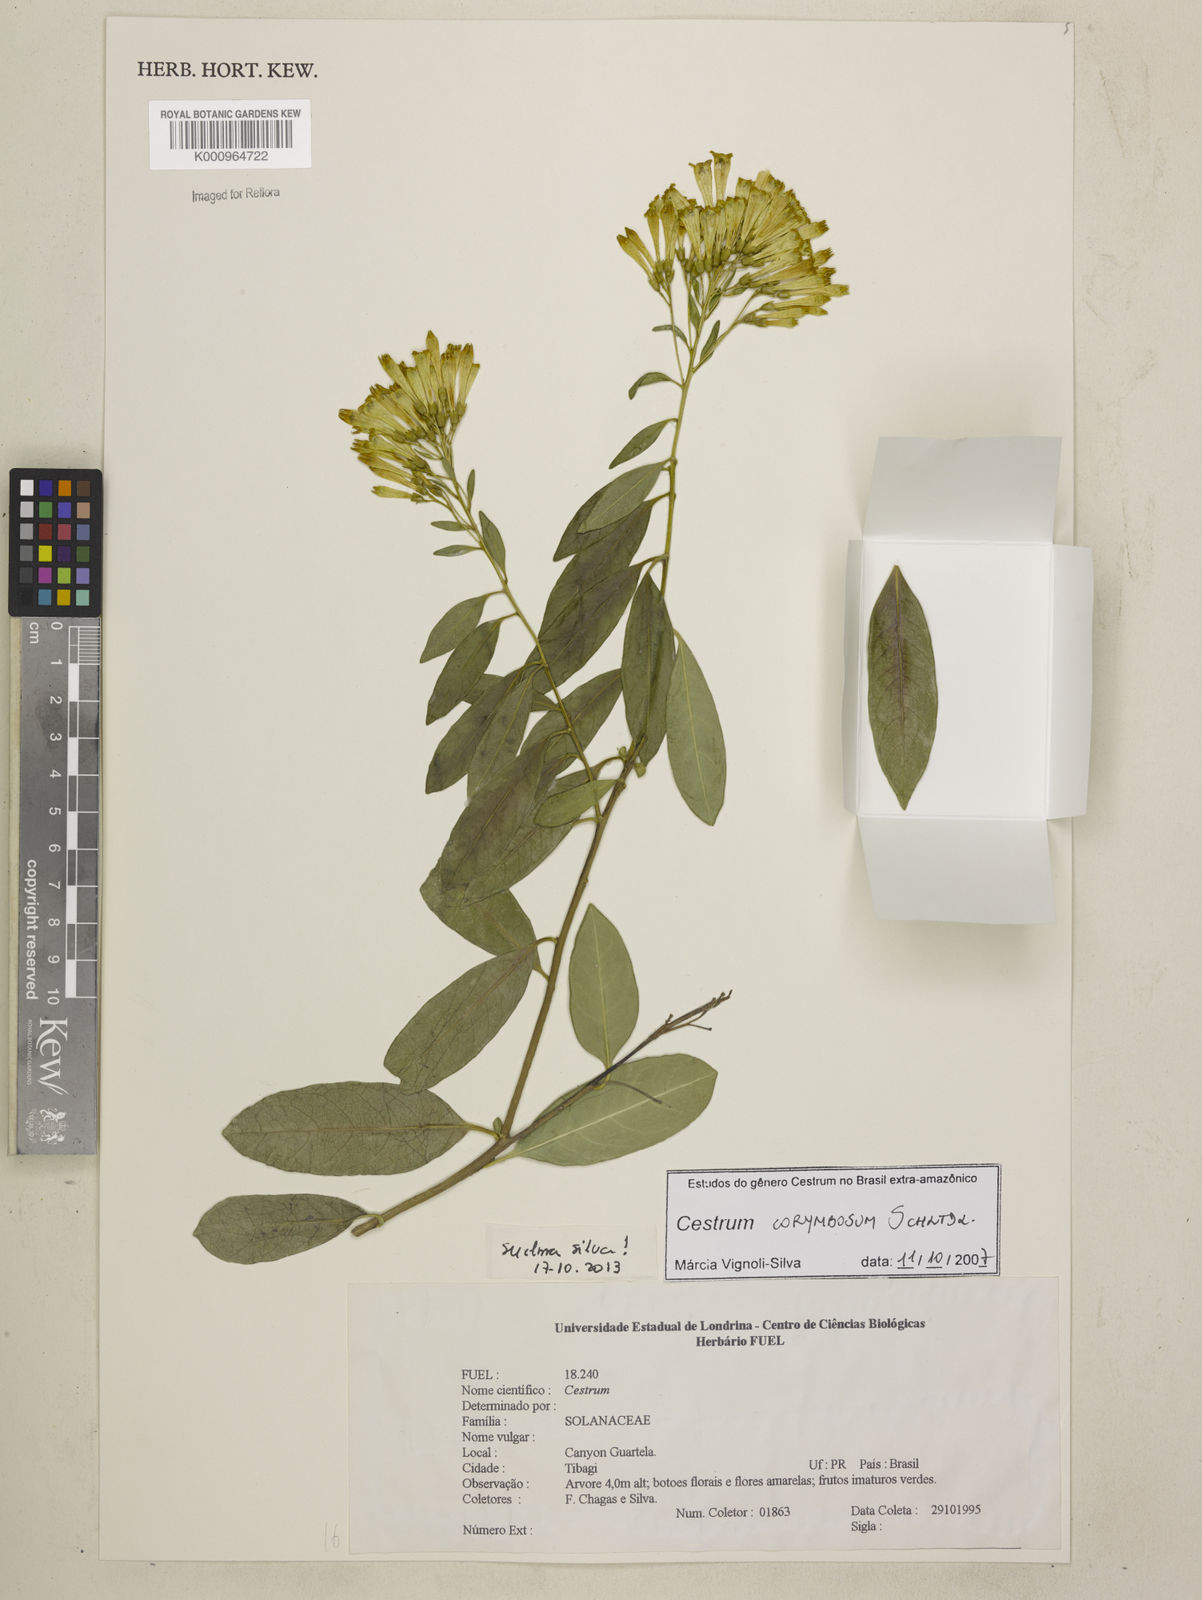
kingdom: Plantae
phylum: Tracheophyta
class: Magnoliopsida
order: Solanales
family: Solanaceae
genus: Cestrum
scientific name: Cestrum corymbosum
